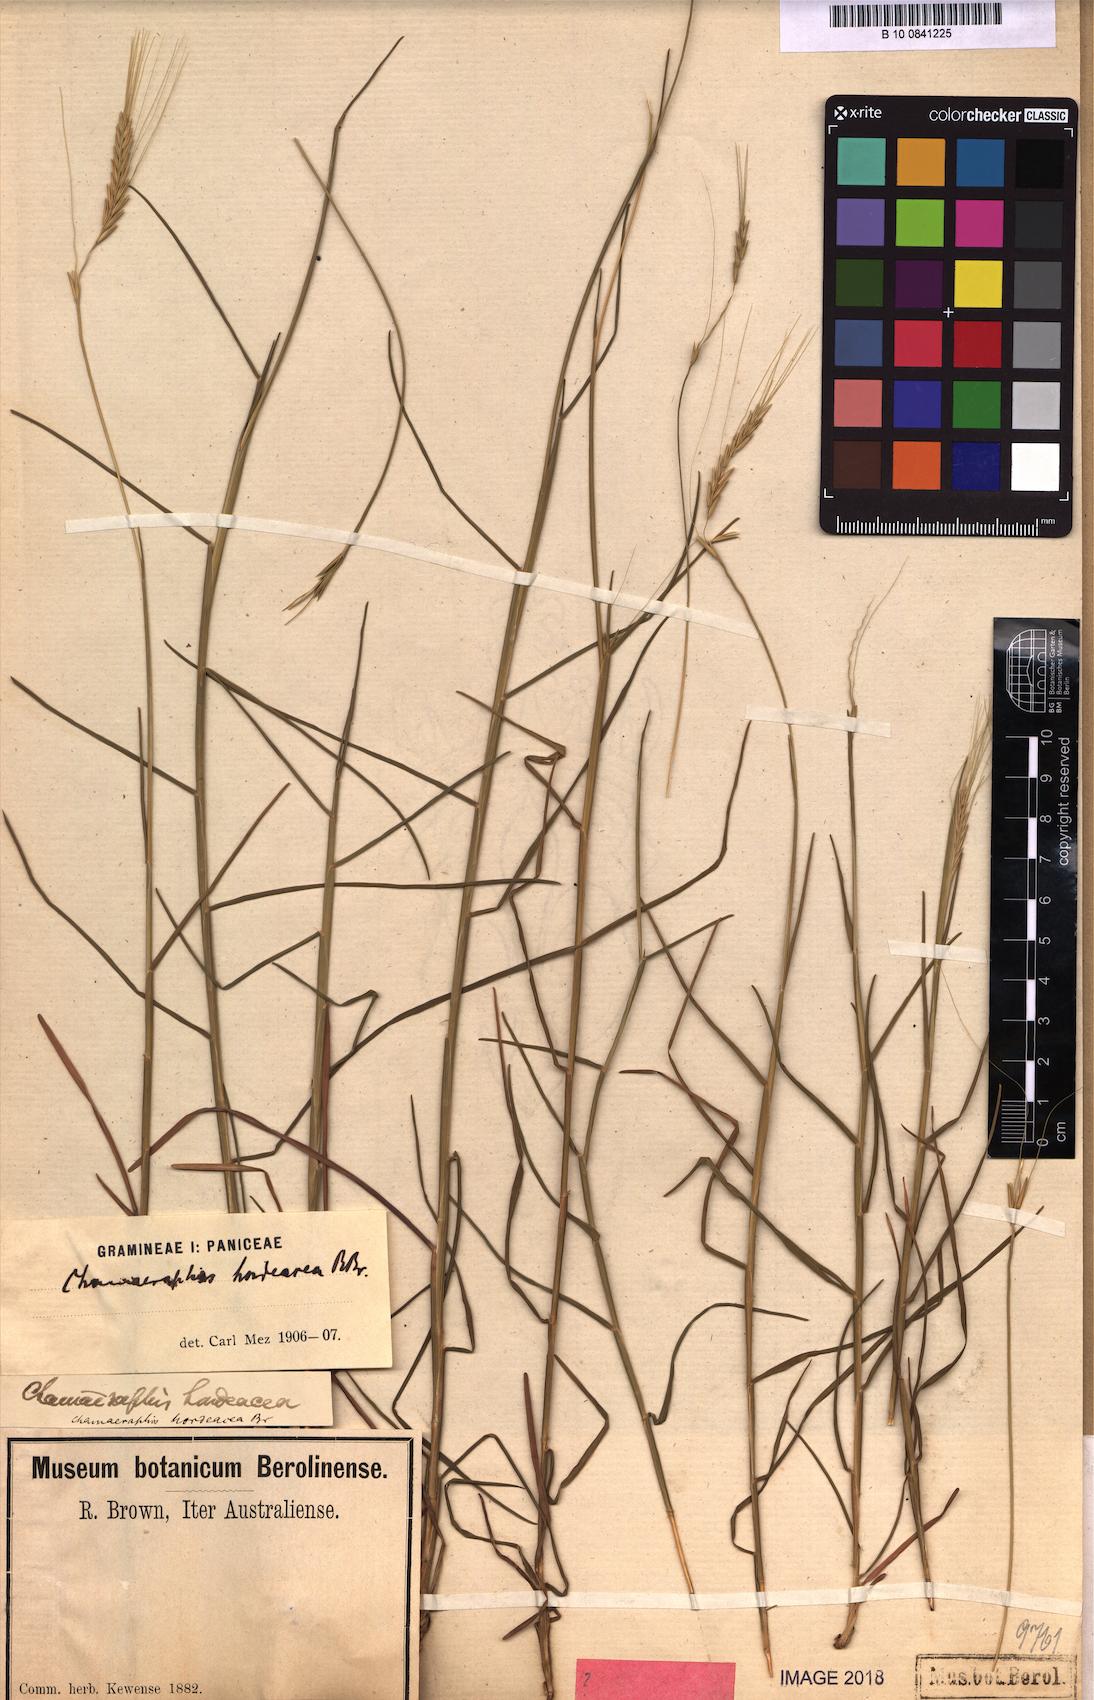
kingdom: Plantae
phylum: Tracheophyta
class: Liliopsida
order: Poales
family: Poaceae
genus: Chamaeraphis
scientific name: Chamaeraphis hordeacea
